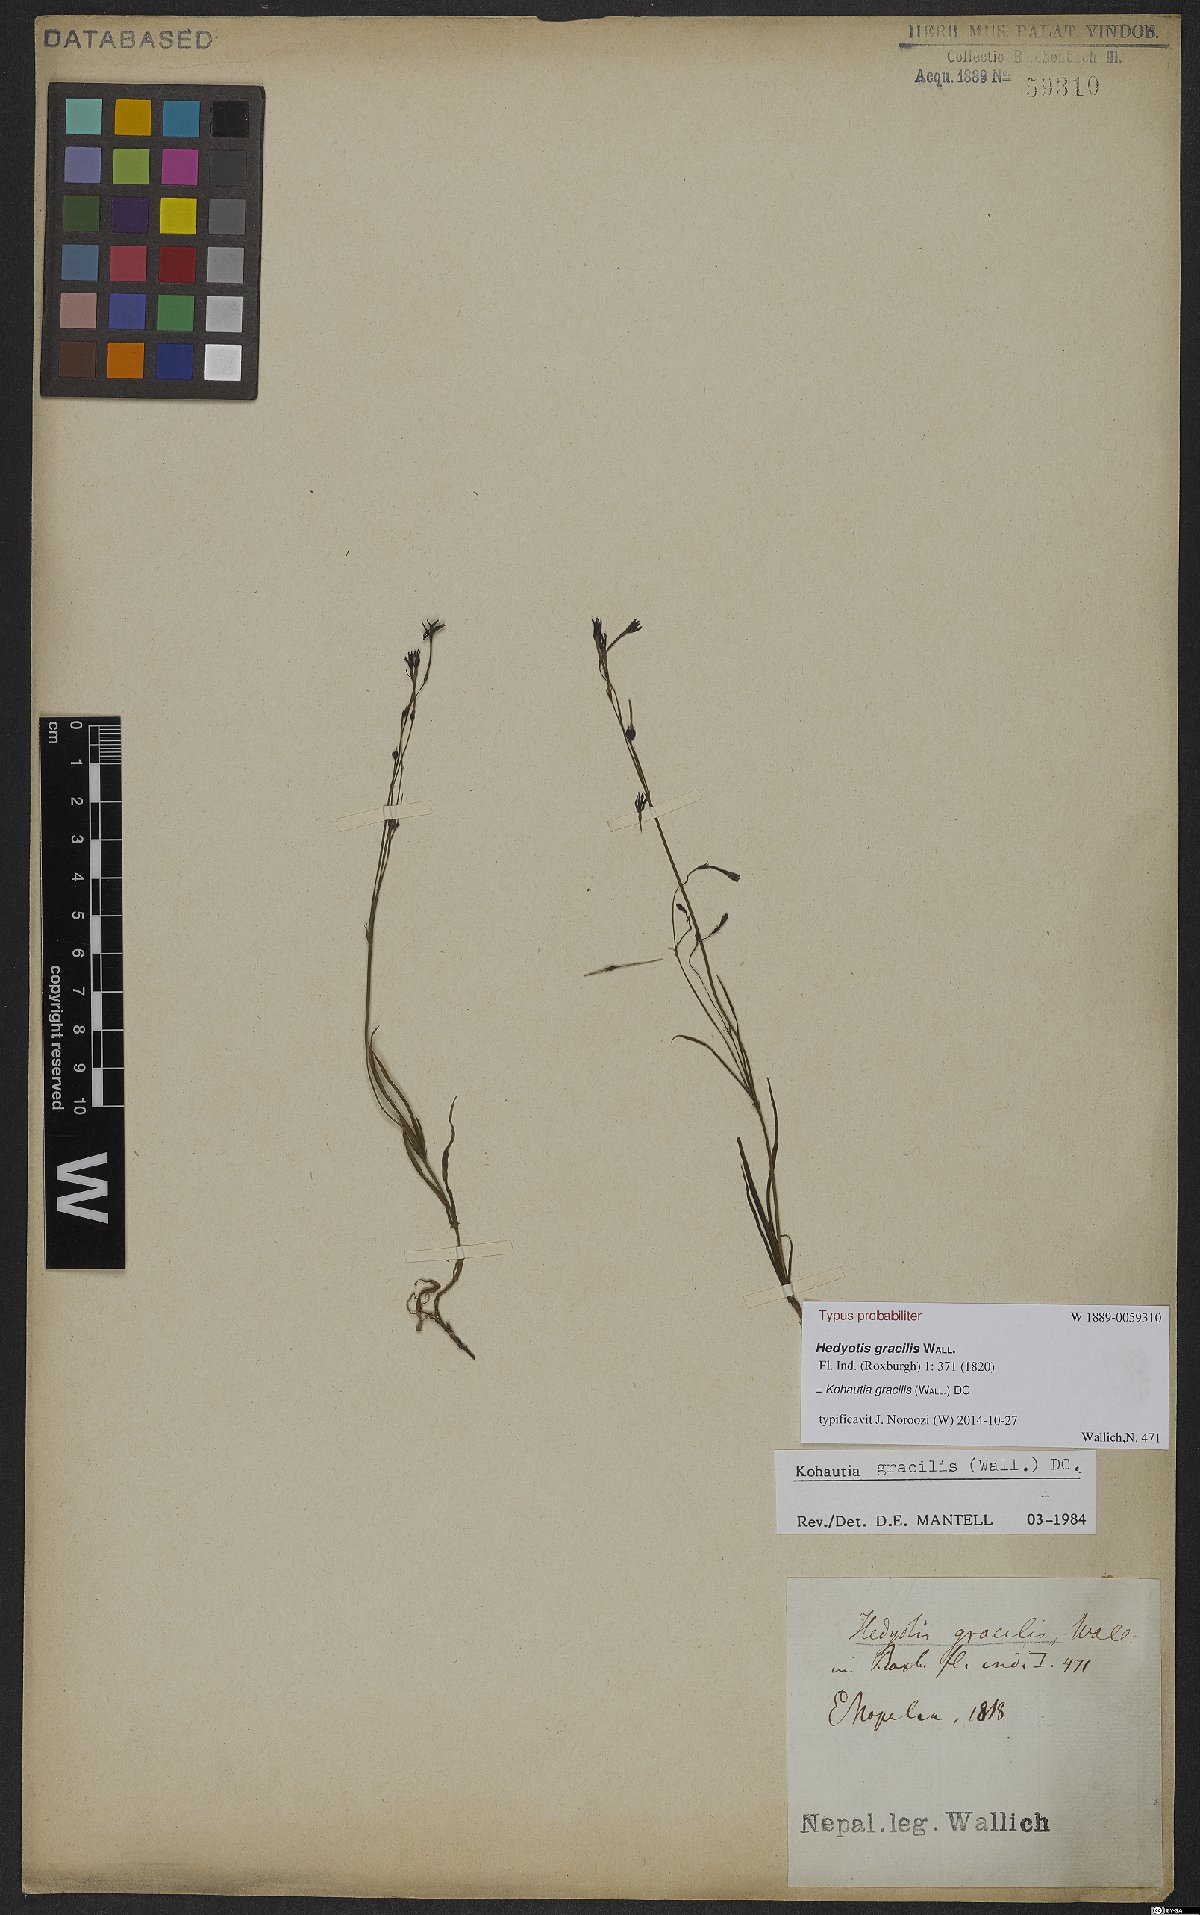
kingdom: Plantae
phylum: Tracheophyta
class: Magnoliopsida
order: Gentianales
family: Rubiaceae
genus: Kohautia
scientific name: Kohautia gracilis
